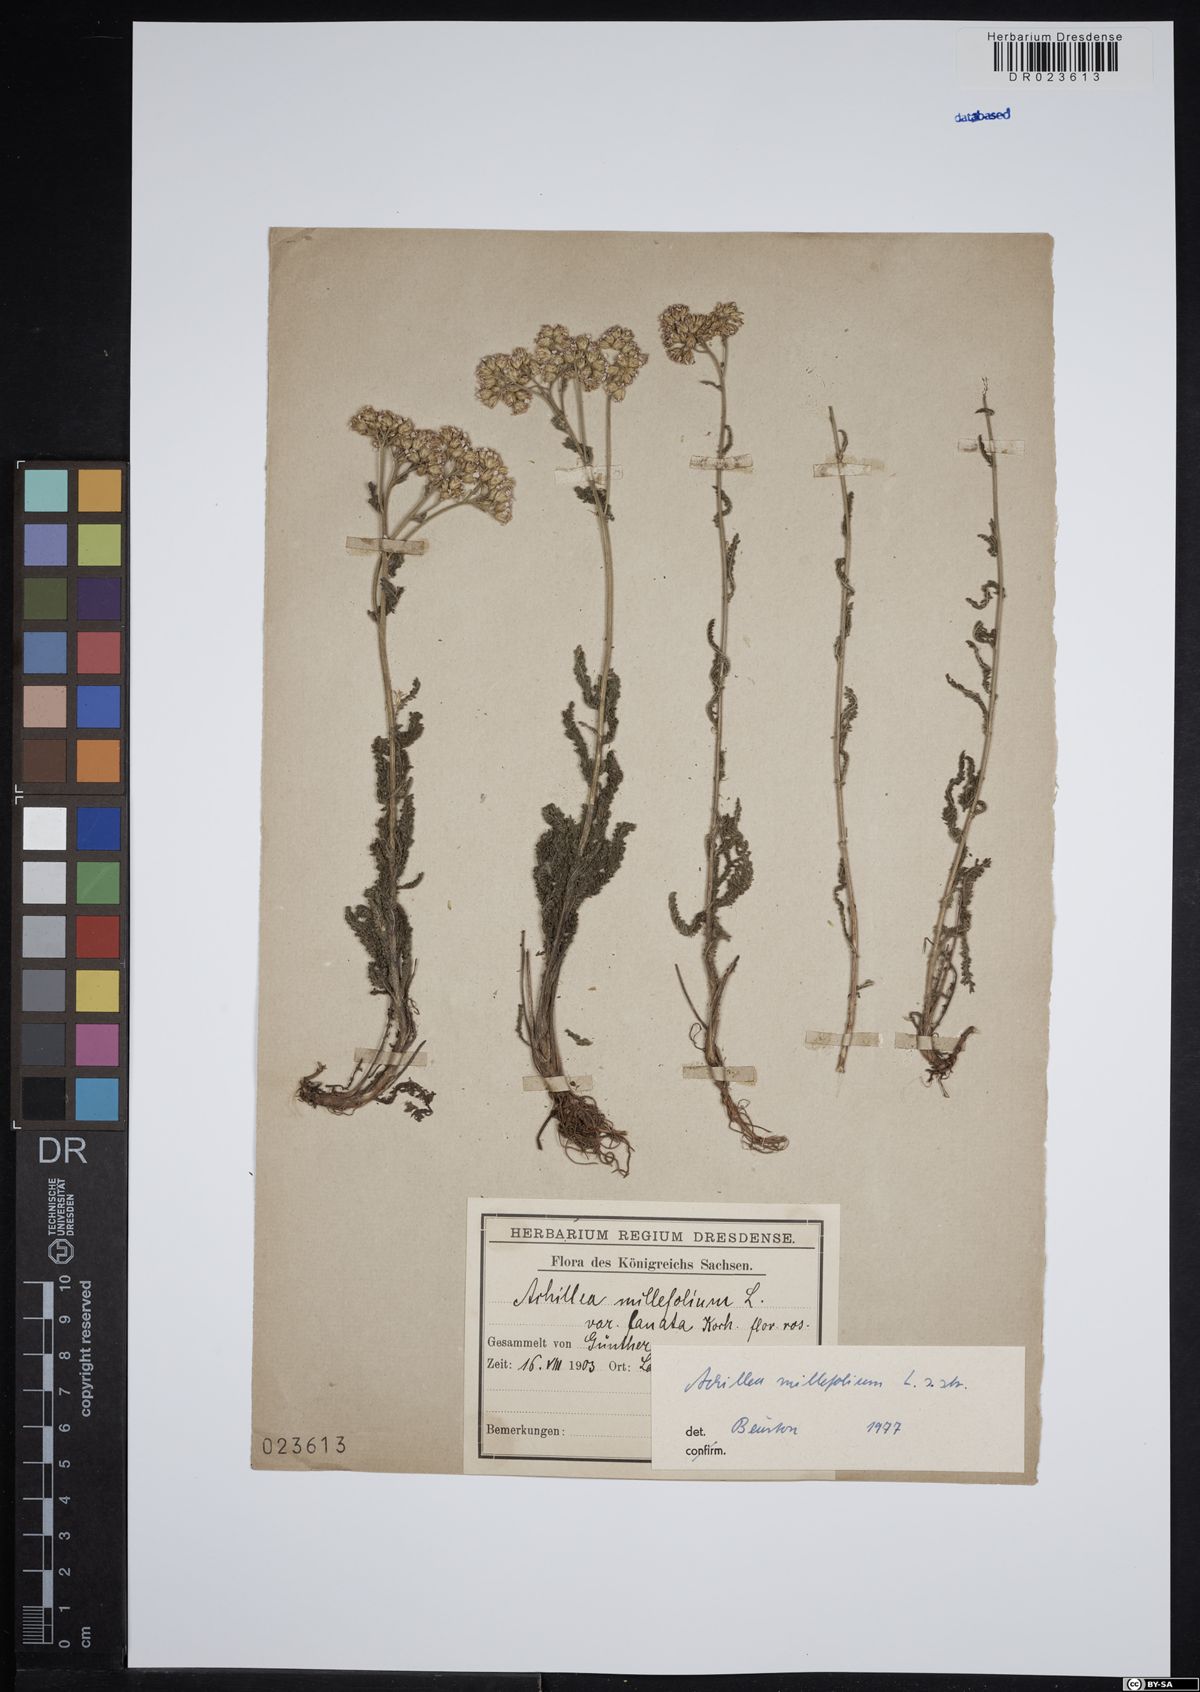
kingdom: Plantae
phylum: Tracheophyta
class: Magnoliopsida
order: Asterales
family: Asteraceae
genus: Achillea
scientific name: Achillea millefolium
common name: Yarrow
